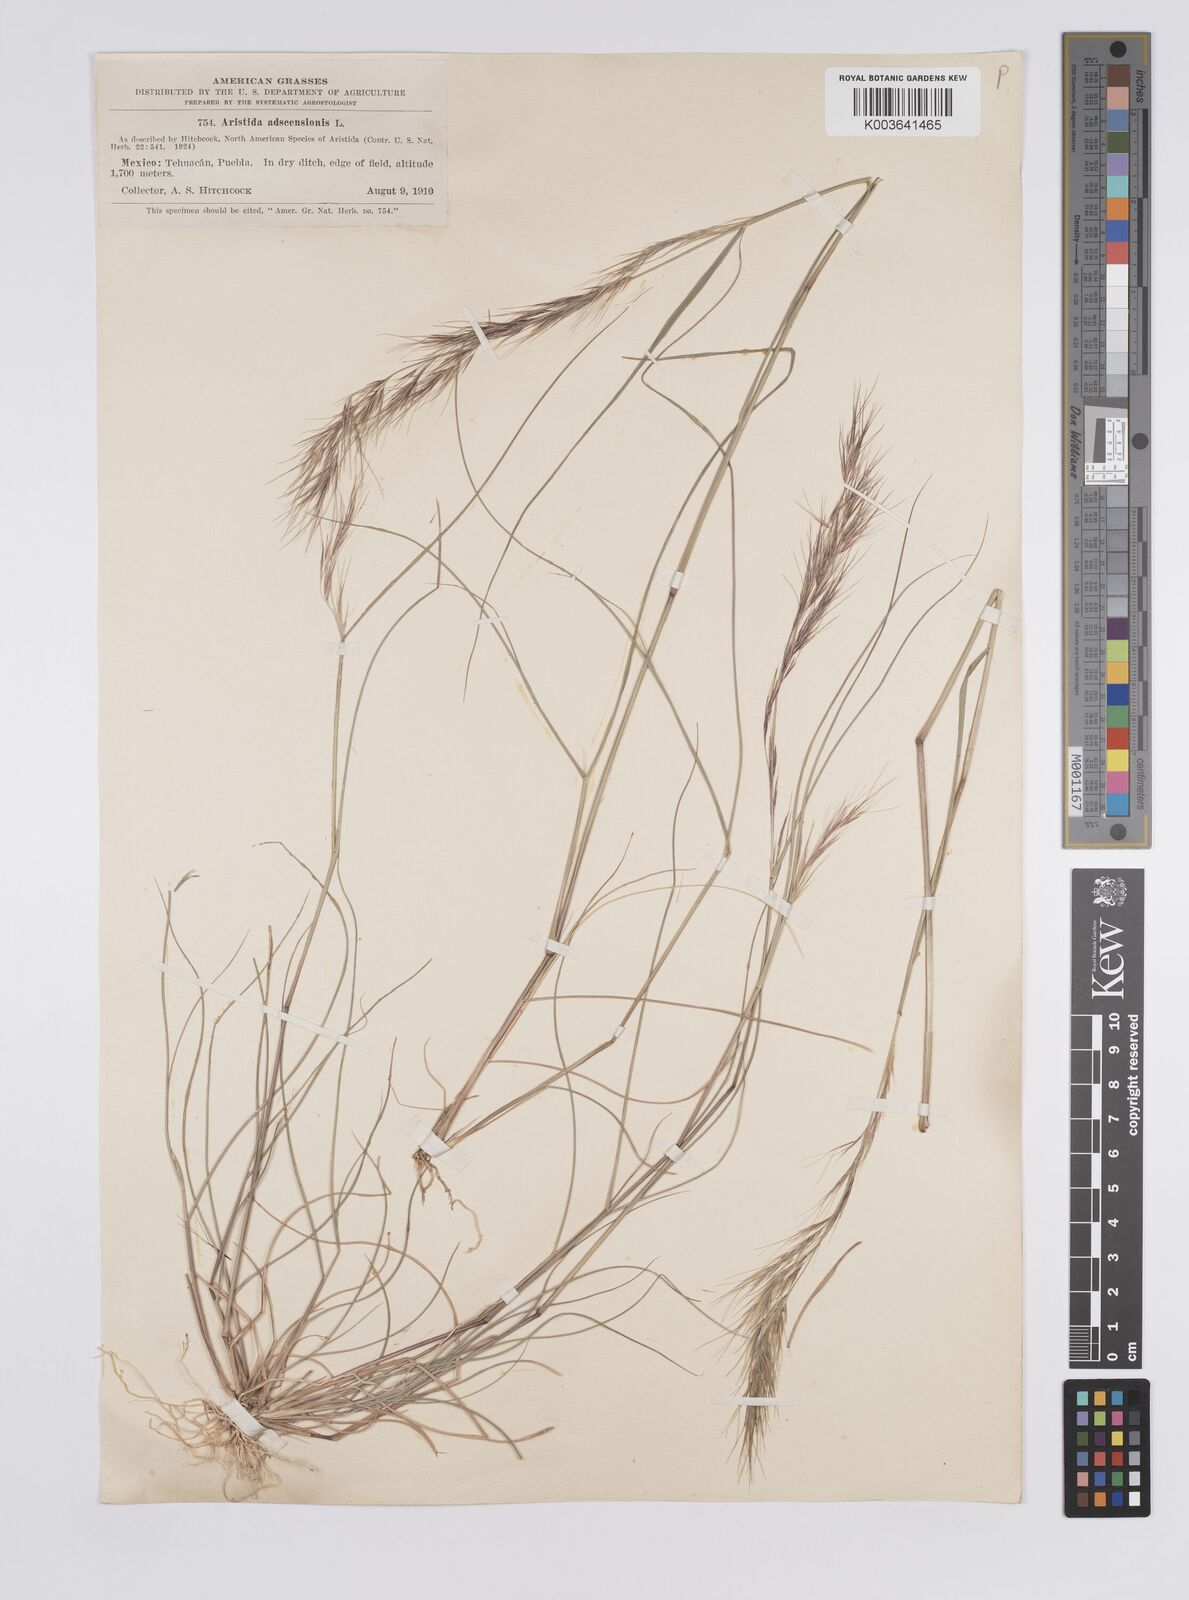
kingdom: Plantae
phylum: Tracheophyta
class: Liliopsida
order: Poales
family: Poaceae
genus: Aristida
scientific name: Aristida adscensionis
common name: Sixweeks threeawn
